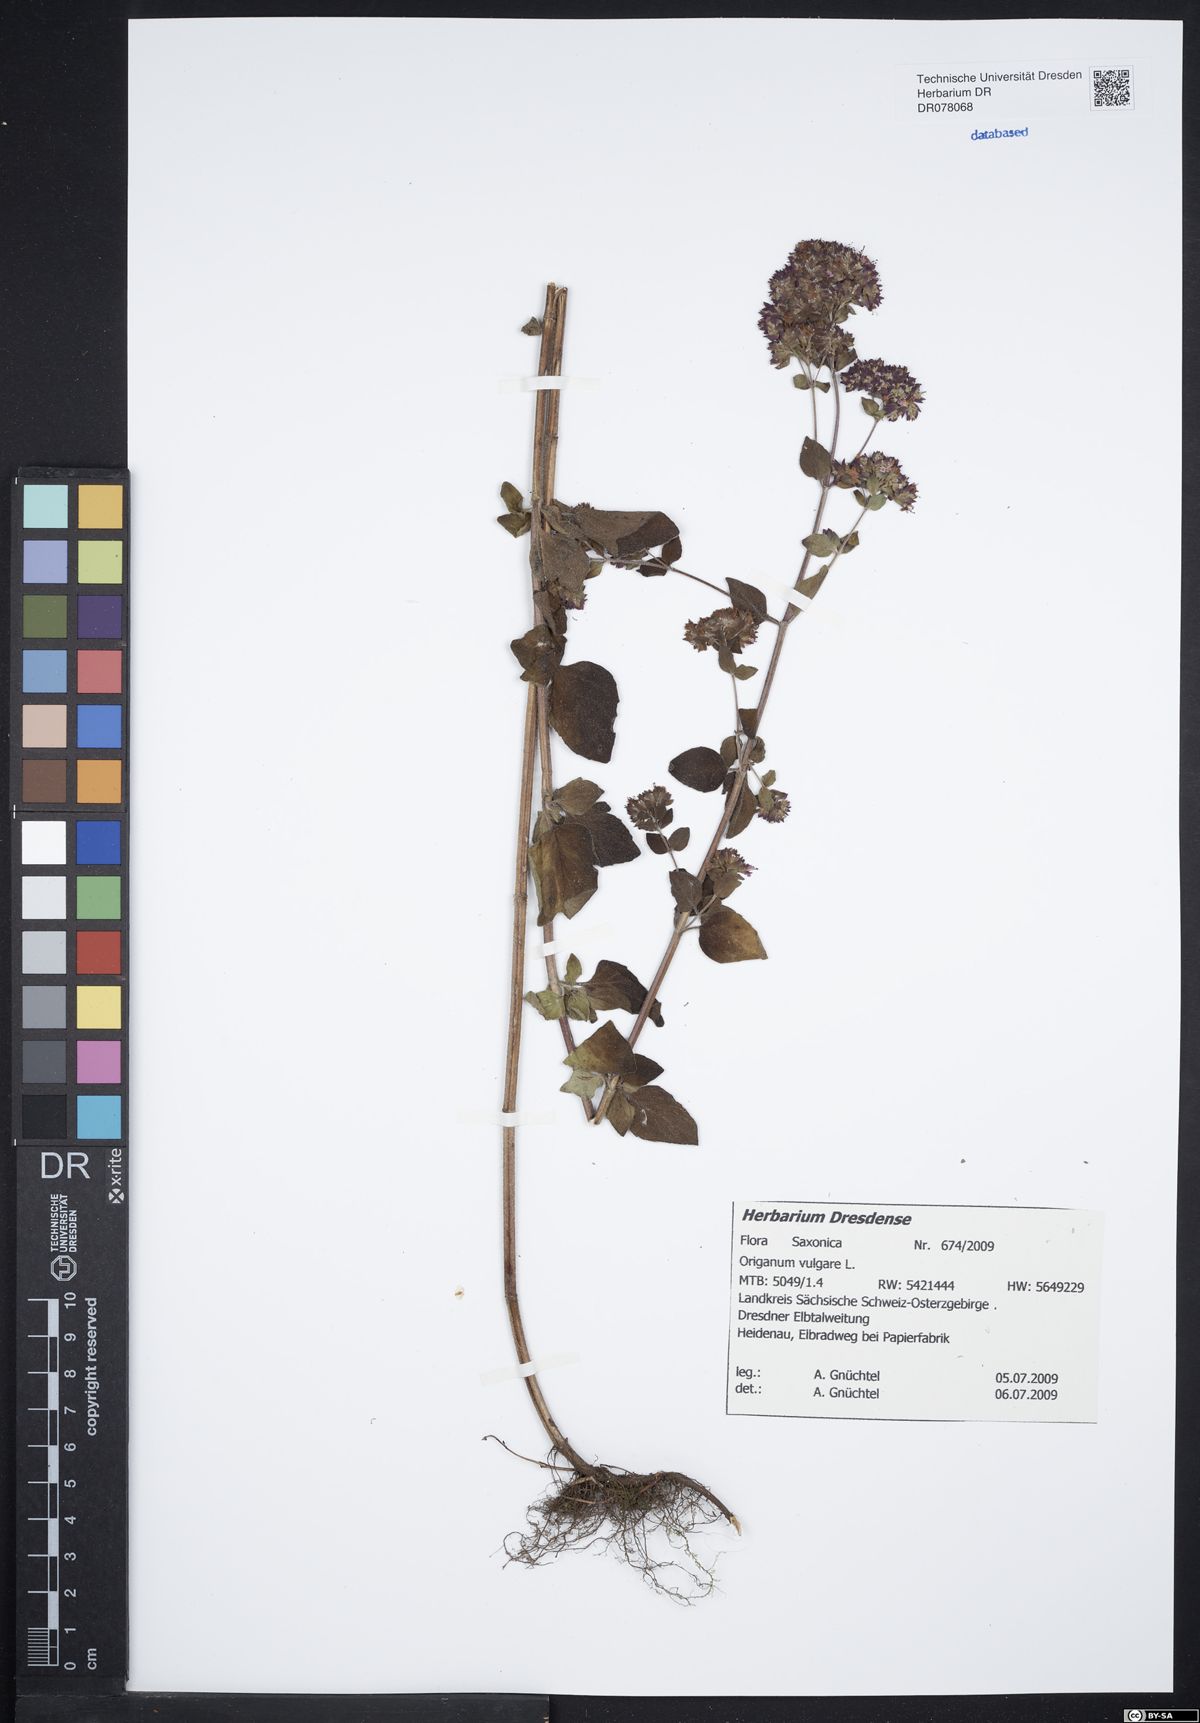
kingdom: Plantae
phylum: Tracheophyta
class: Magnoliopsida
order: Lamiales
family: Lamiaceae
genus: Origanum
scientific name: Origanum vulgare
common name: Wild marjoram
